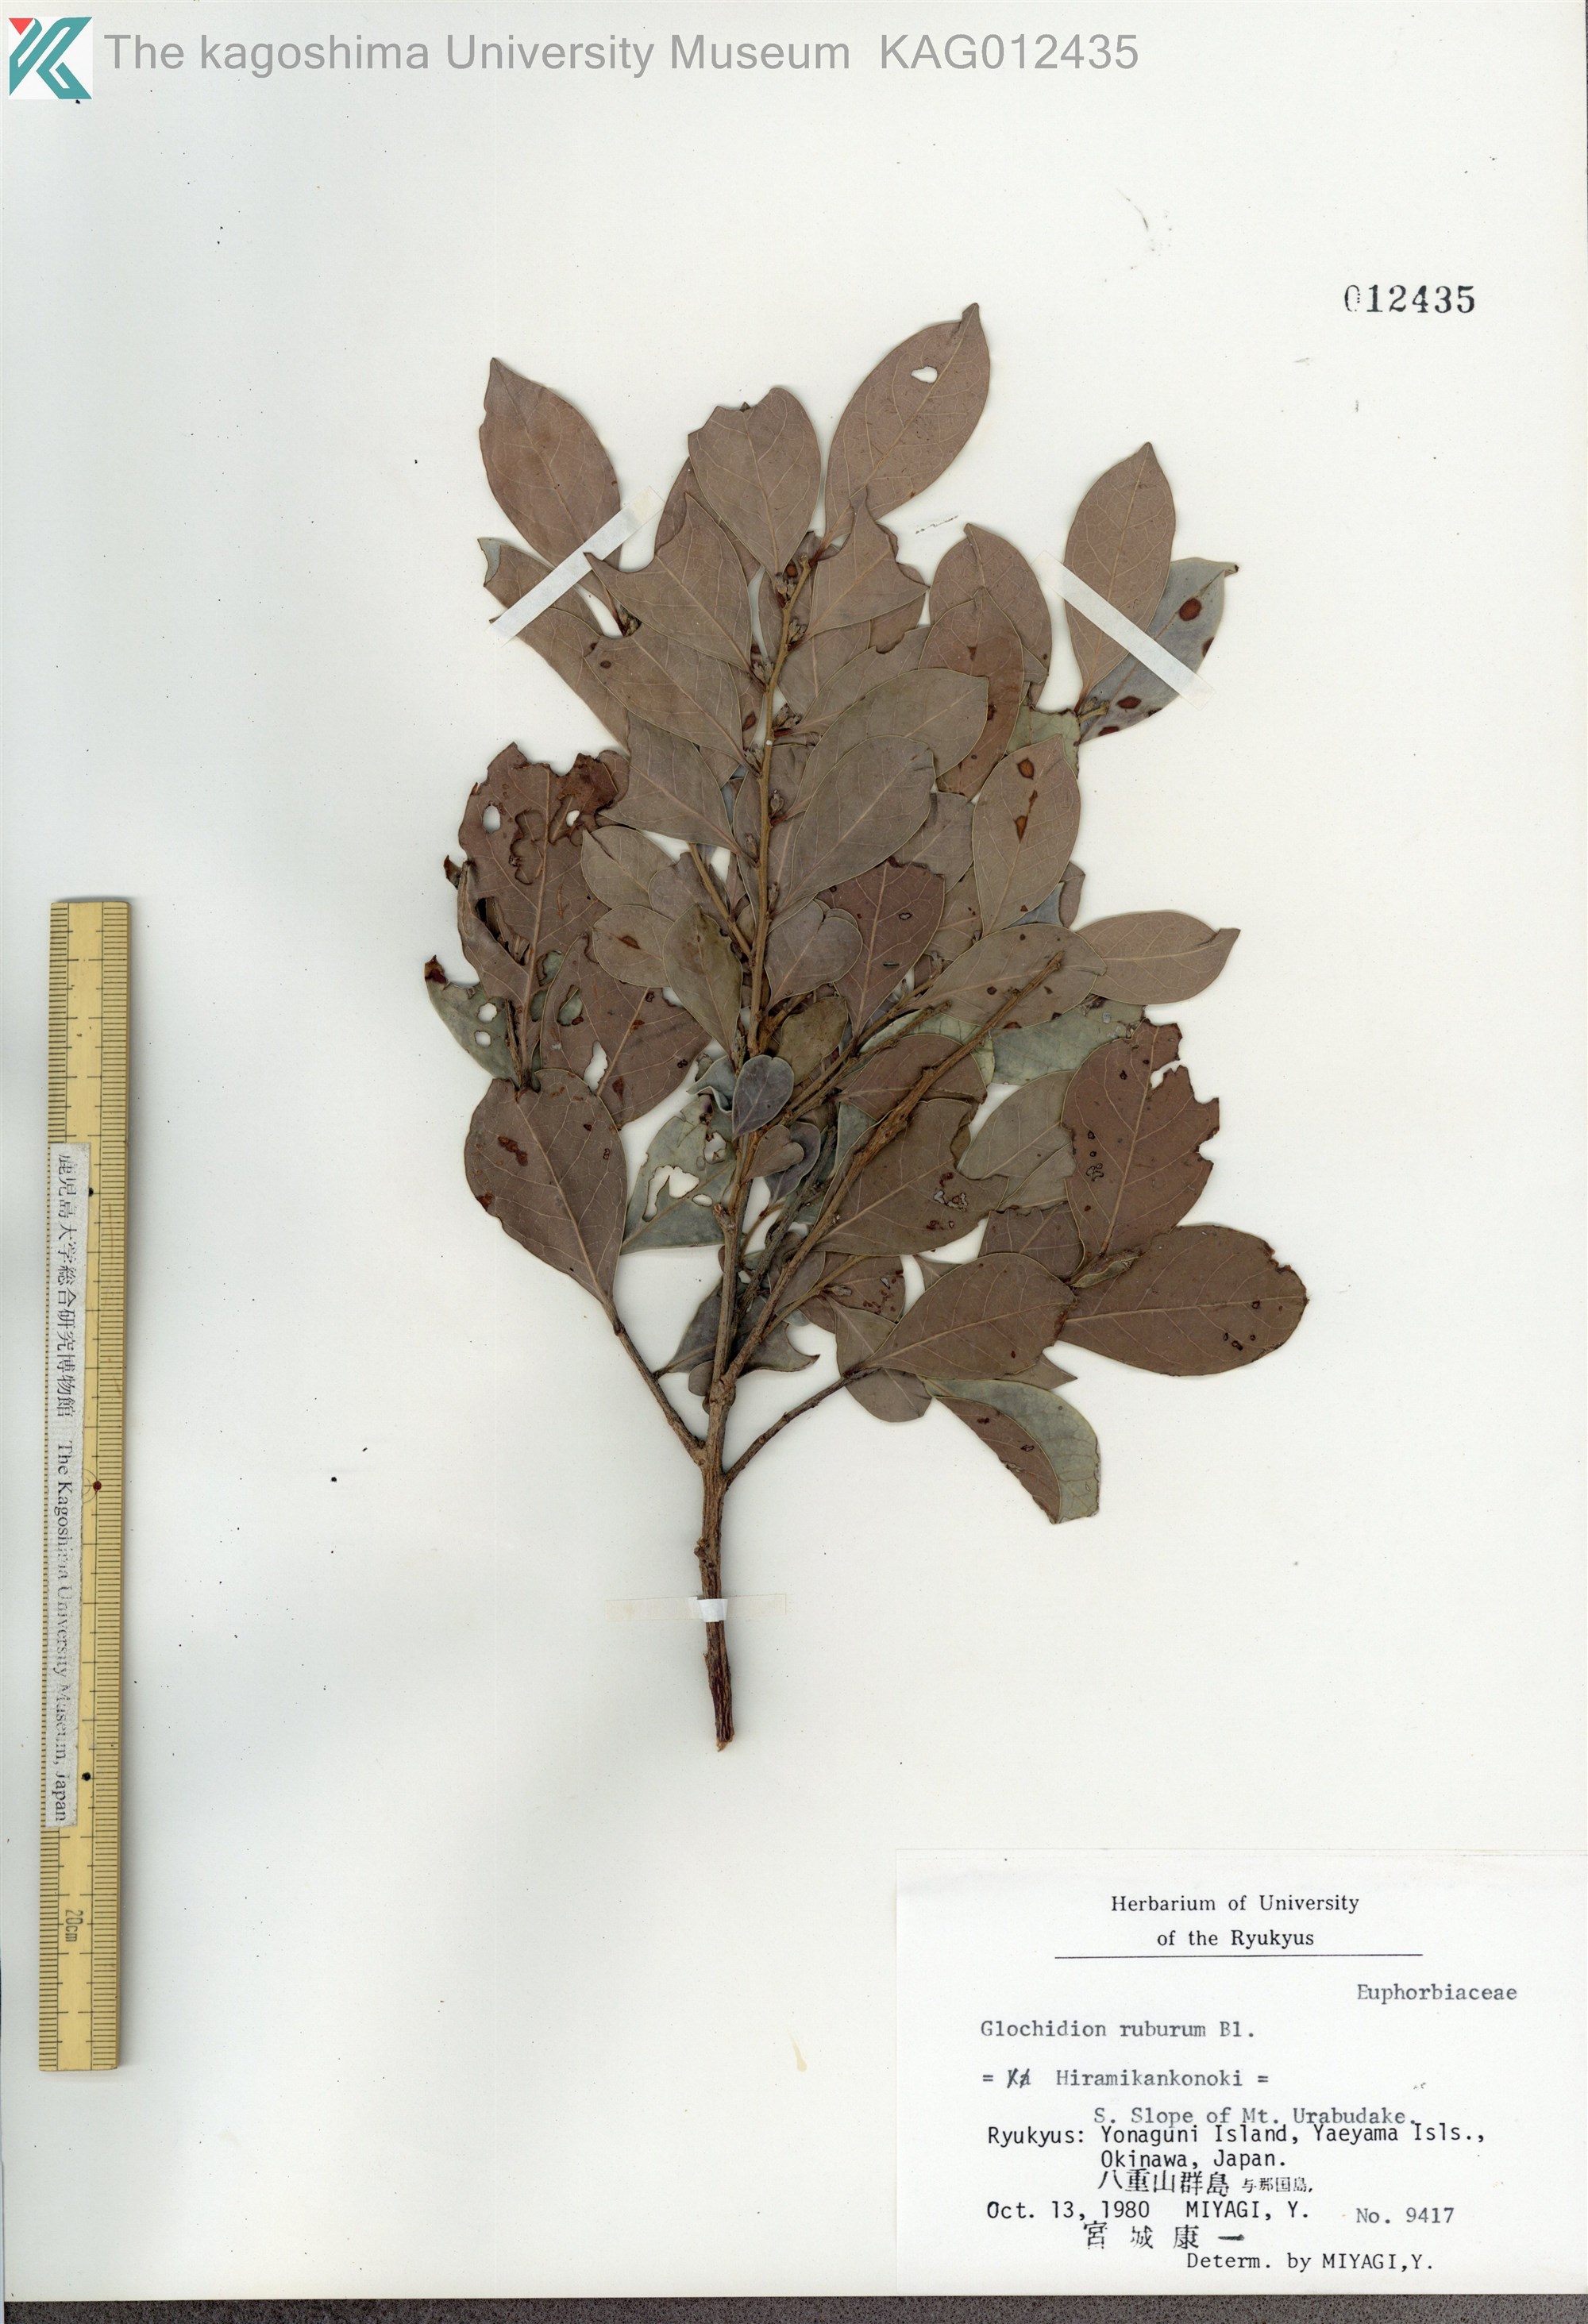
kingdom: Plantae
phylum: Tracheophyta
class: Magnoliopsida
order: Malpighiales
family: Phyllanthaceae
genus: Glochidion
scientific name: Glochidion rubrum
